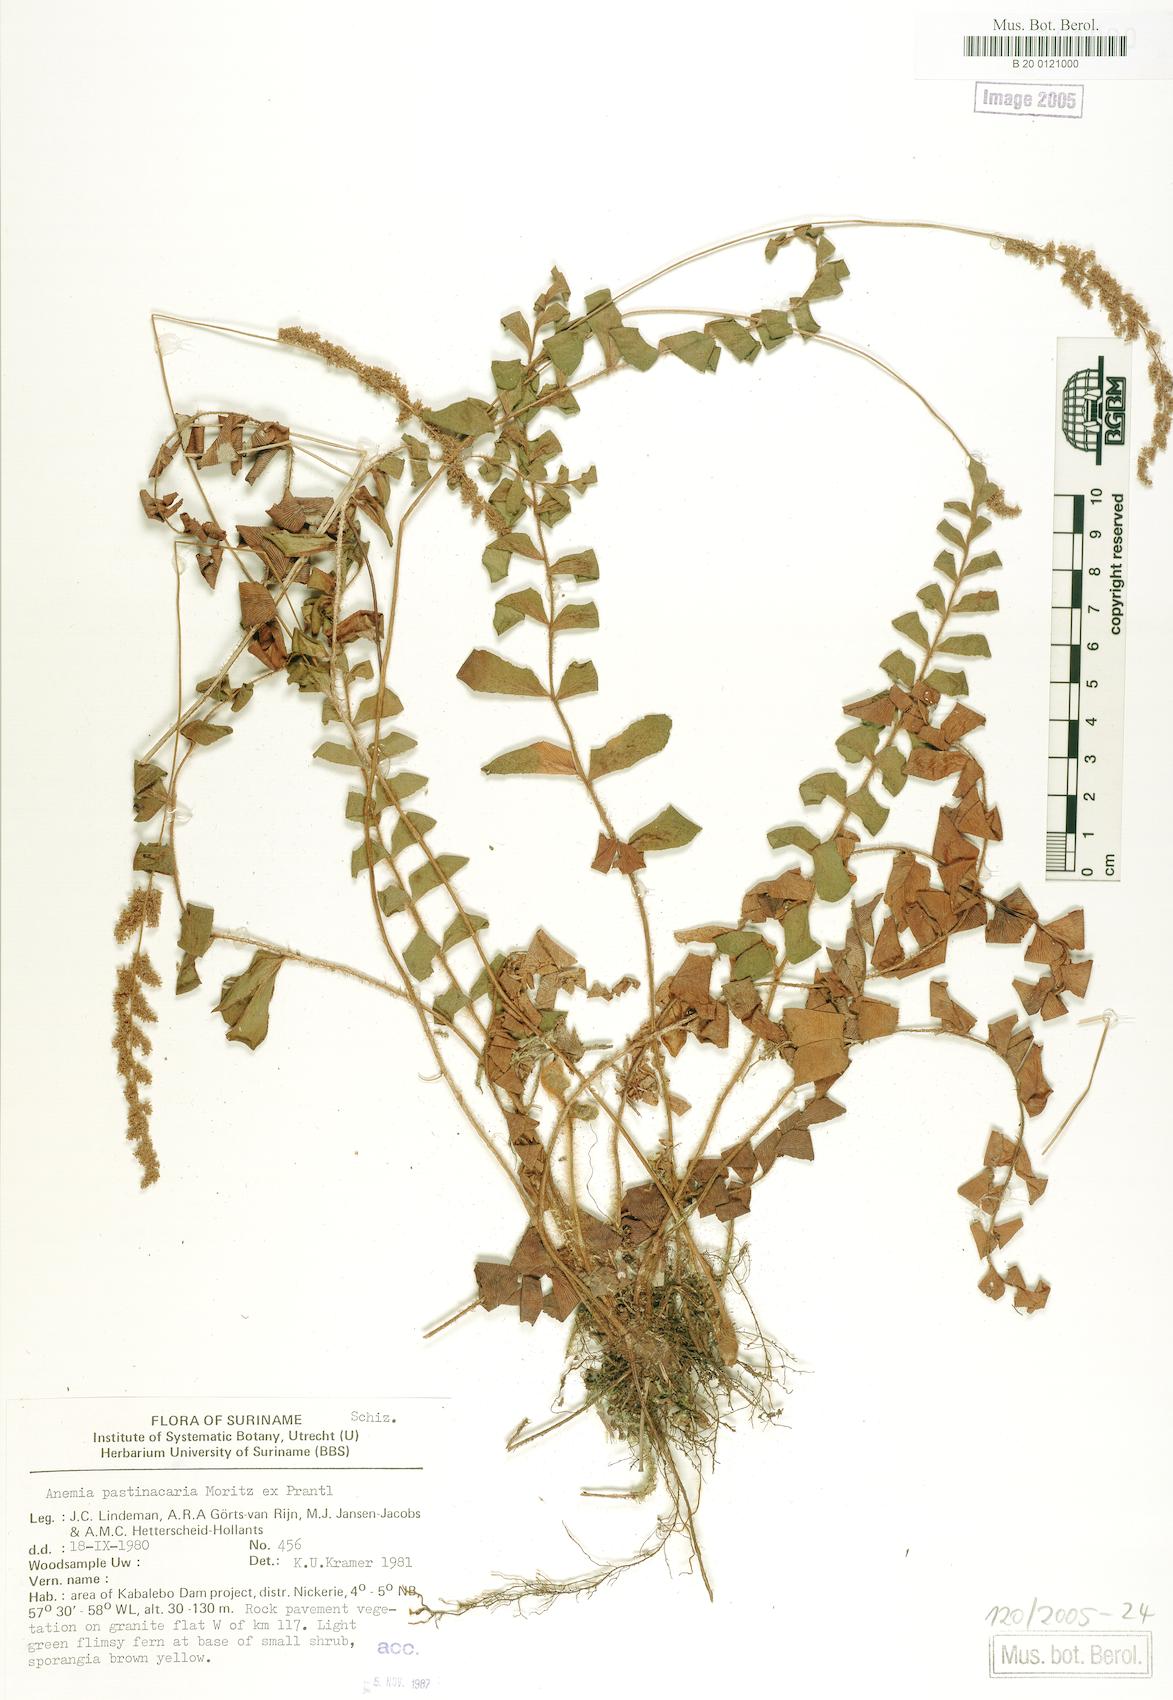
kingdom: Plantae
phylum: Tracheophyta
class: Polypodiopsida
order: Schizaeales
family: Anemiaceae
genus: Anemia
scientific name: Anemia collina
